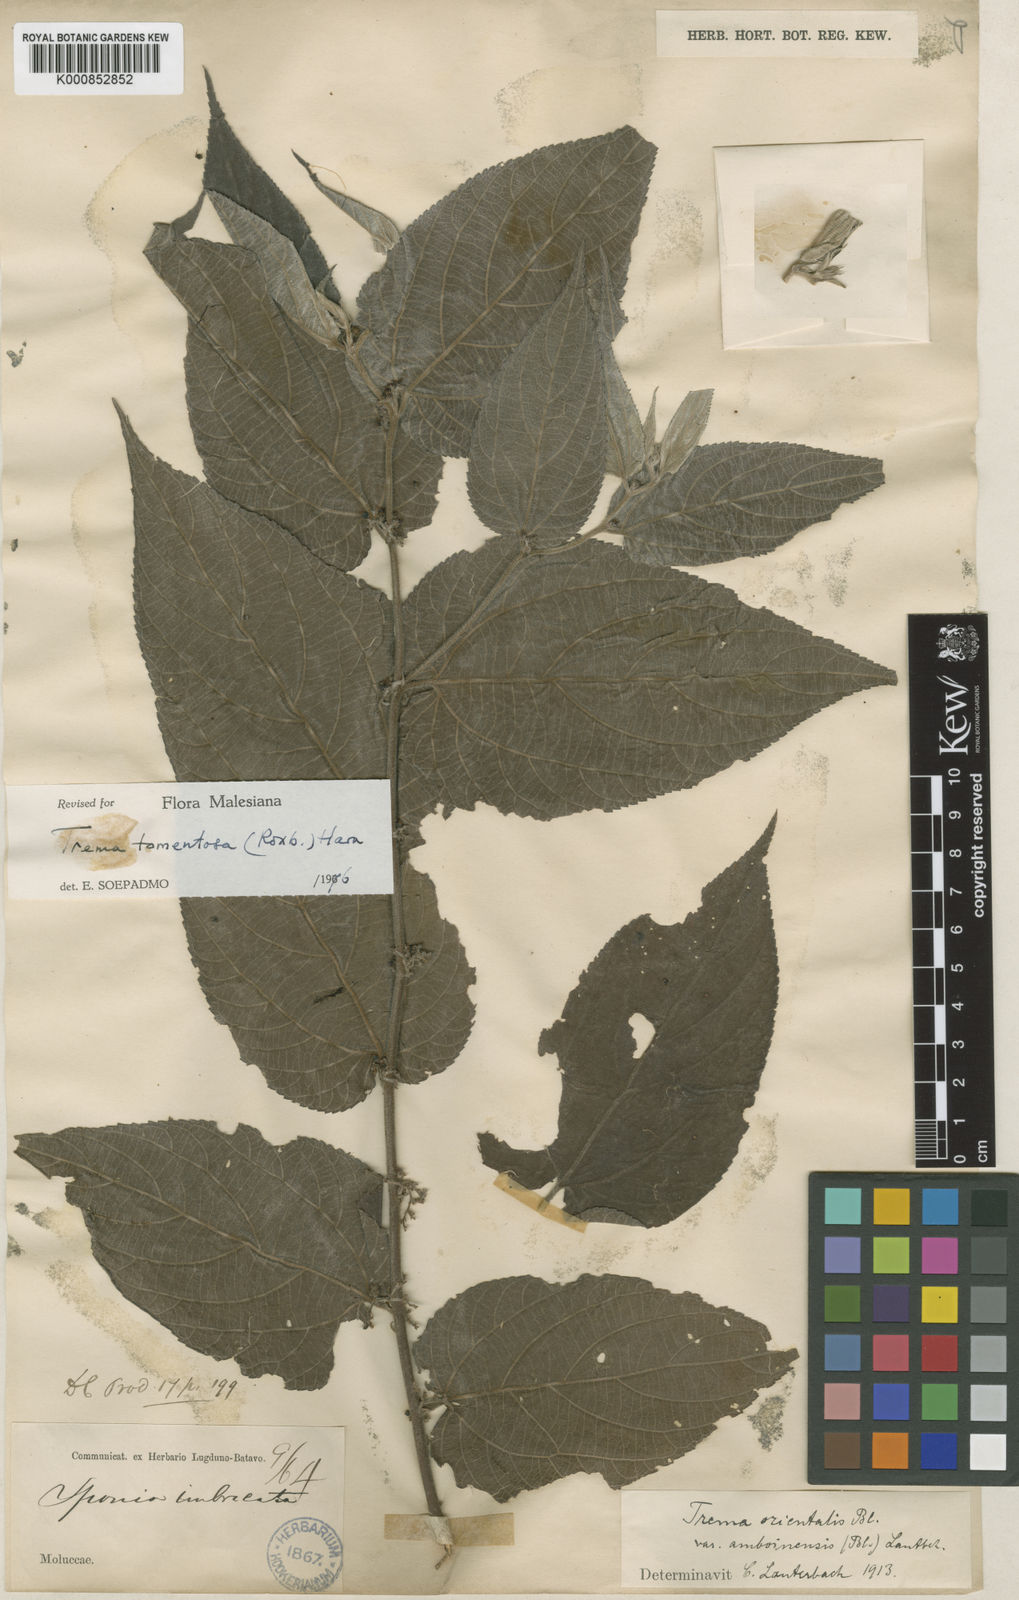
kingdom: Plantae
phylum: Tracheophyta
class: Magnoliopsida
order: Rosales
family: Cannabaceae
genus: Trema
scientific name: Trema tomentosum
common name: Peach-leaf-poisonbush
